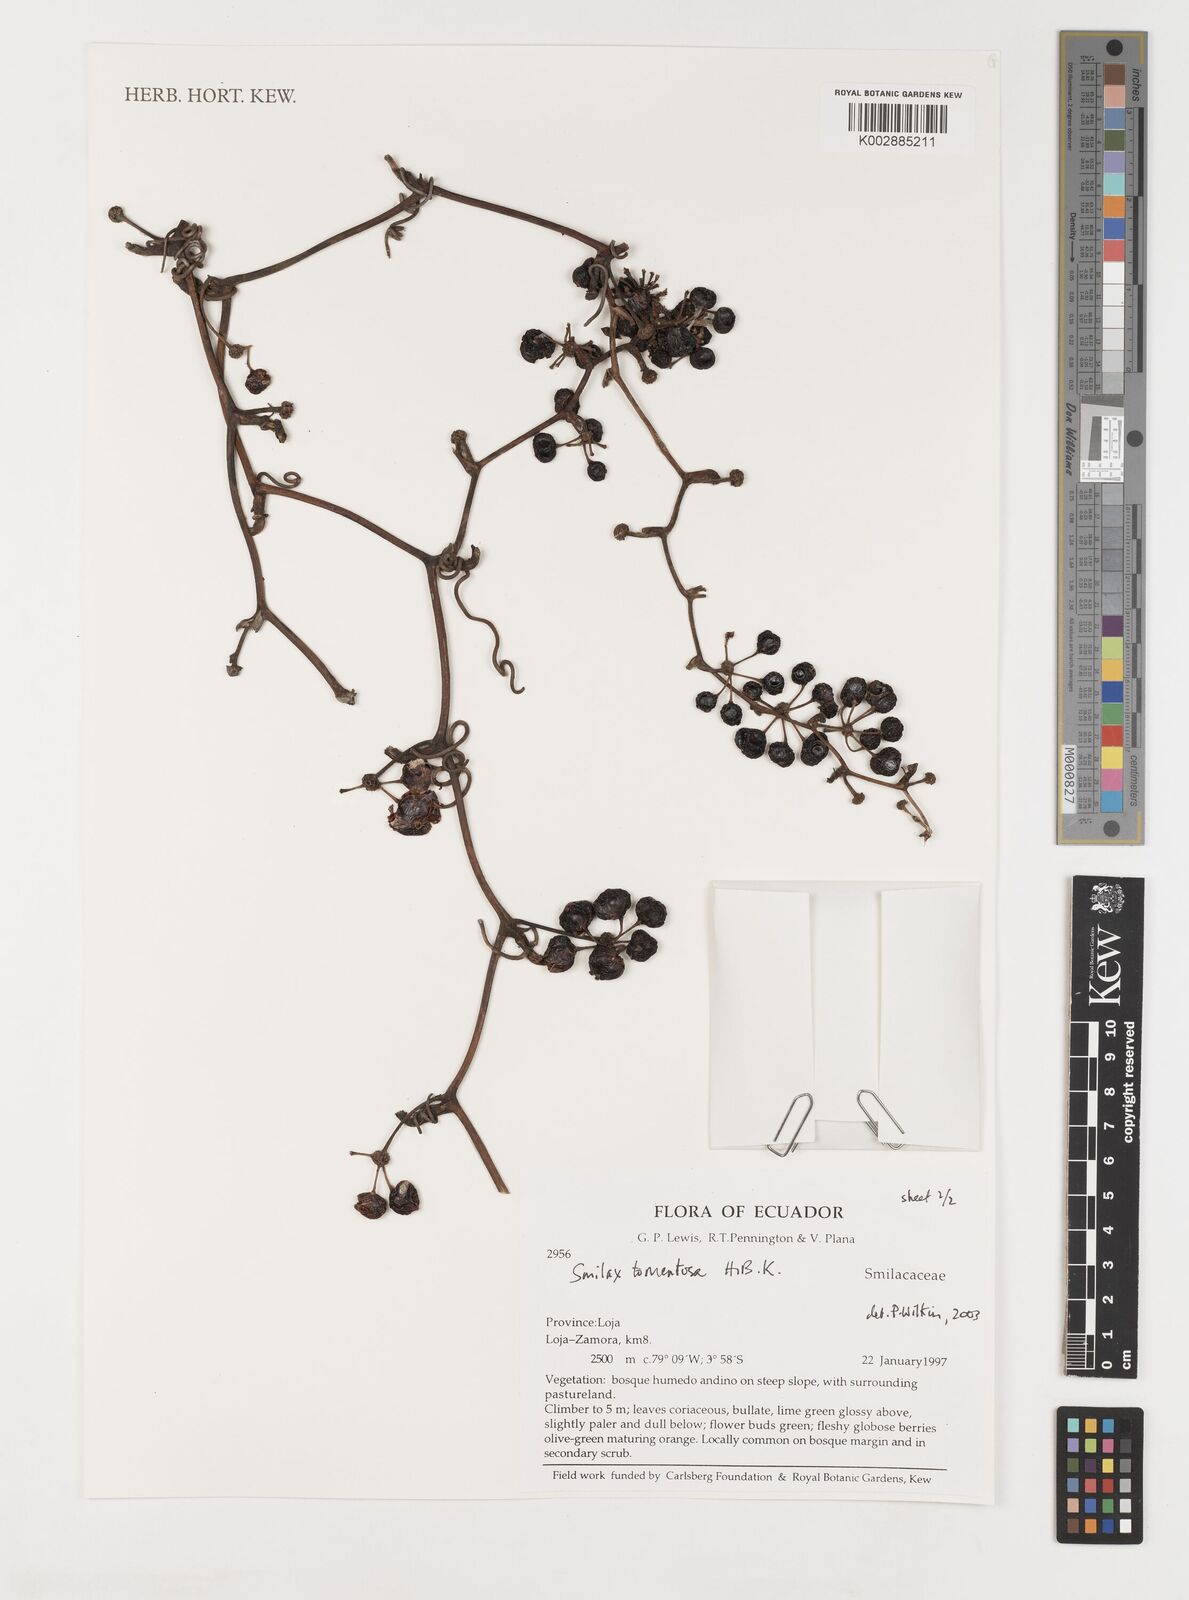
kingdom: Plantae
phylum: Tracheophyta
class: Liliopsida
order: Liliales
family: Smilacaceae
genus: Smilax
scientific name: Smilax tomentosa
